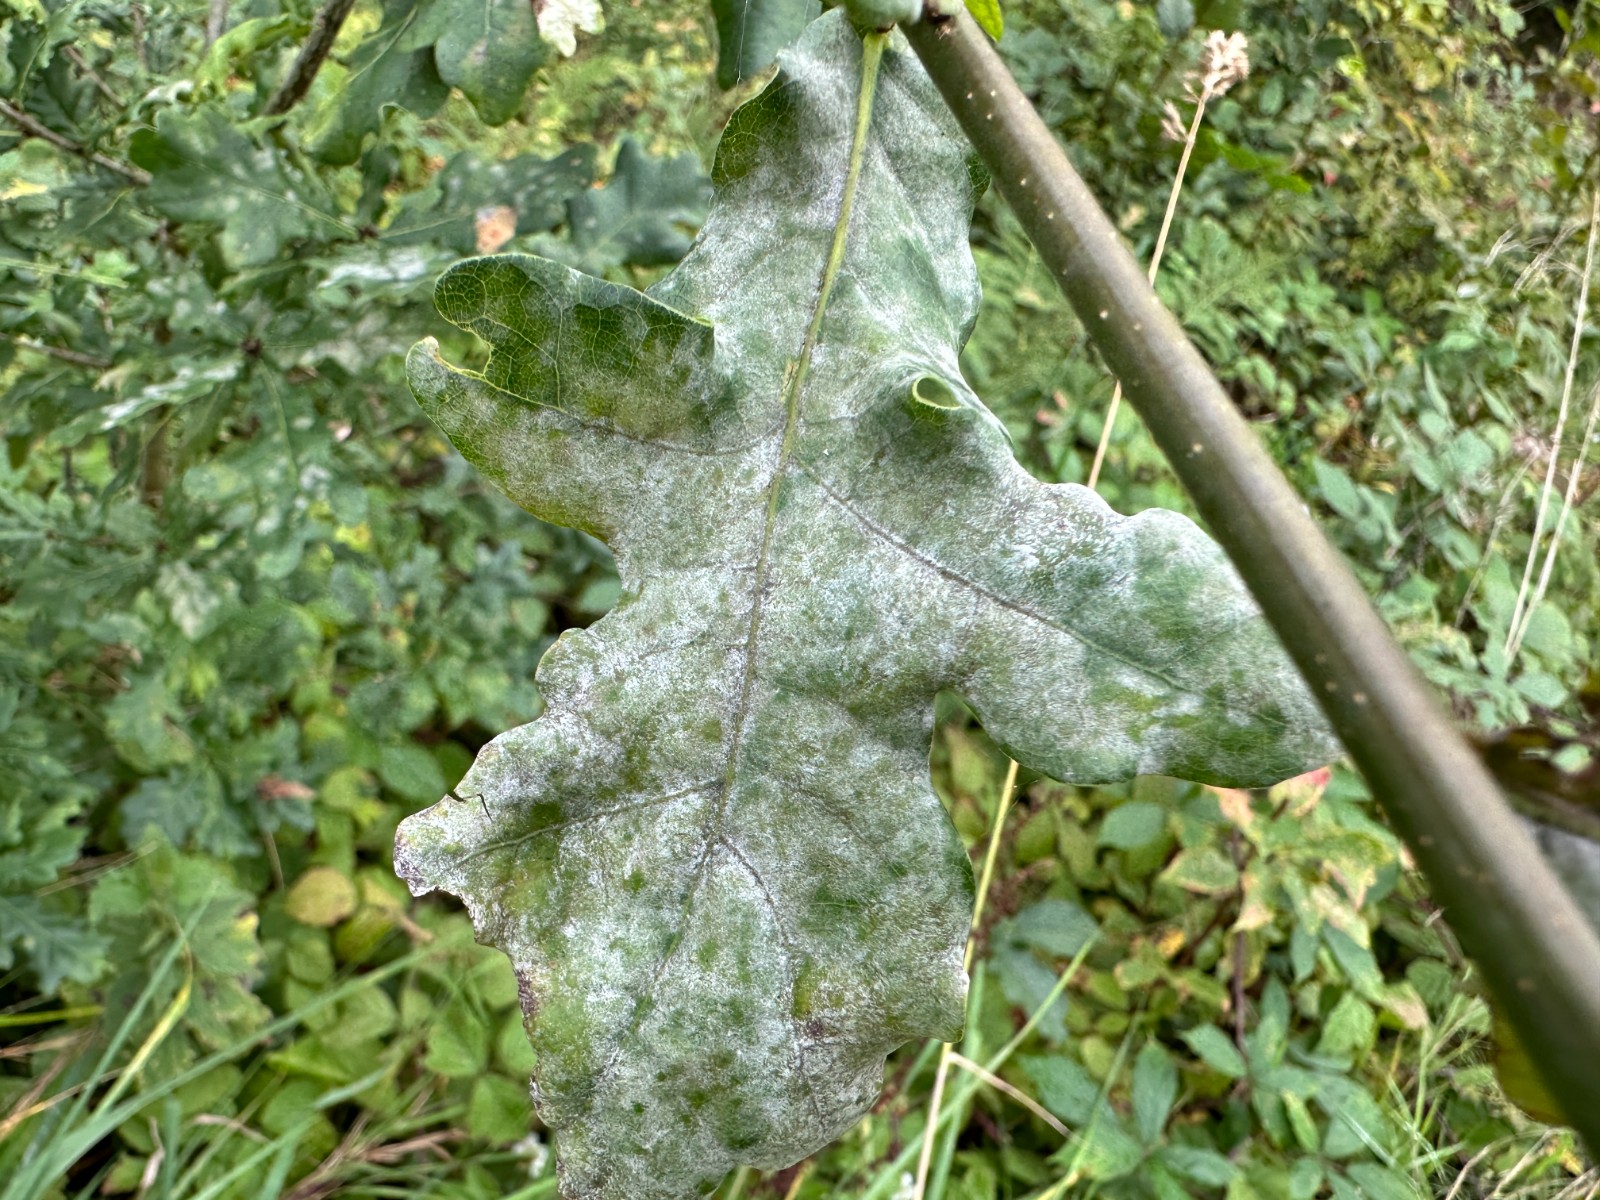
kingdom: Fungi
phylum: Ascomycota
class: Leotiomycetes
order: Helotiales
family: Erysiphaceae
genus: Erysiphe
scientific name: Erysiphe alphitoides
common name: ege-meldug
